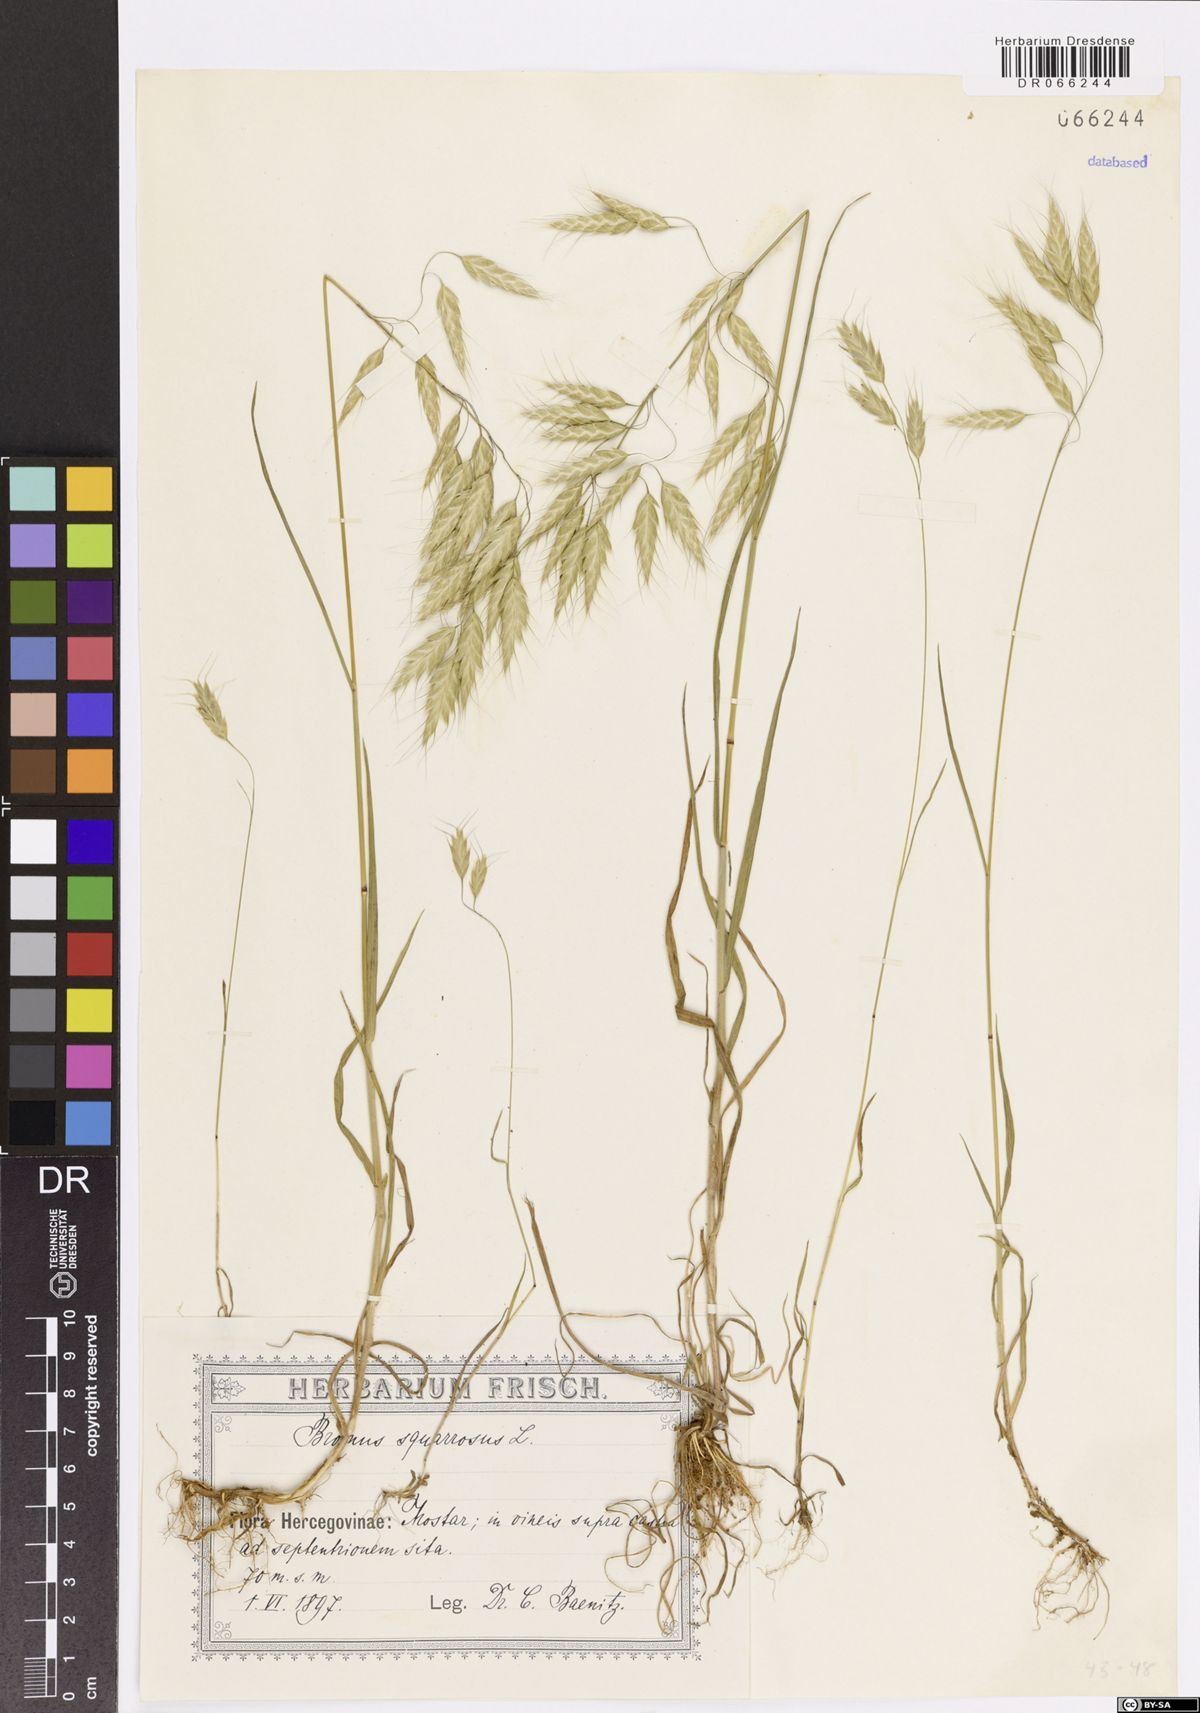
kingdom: Plantae
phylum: Tracheophyta
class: Liliopsida
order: Poales
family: Poaceae
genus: Bromus
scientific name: Bromus squarrosus
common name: Corn brome
